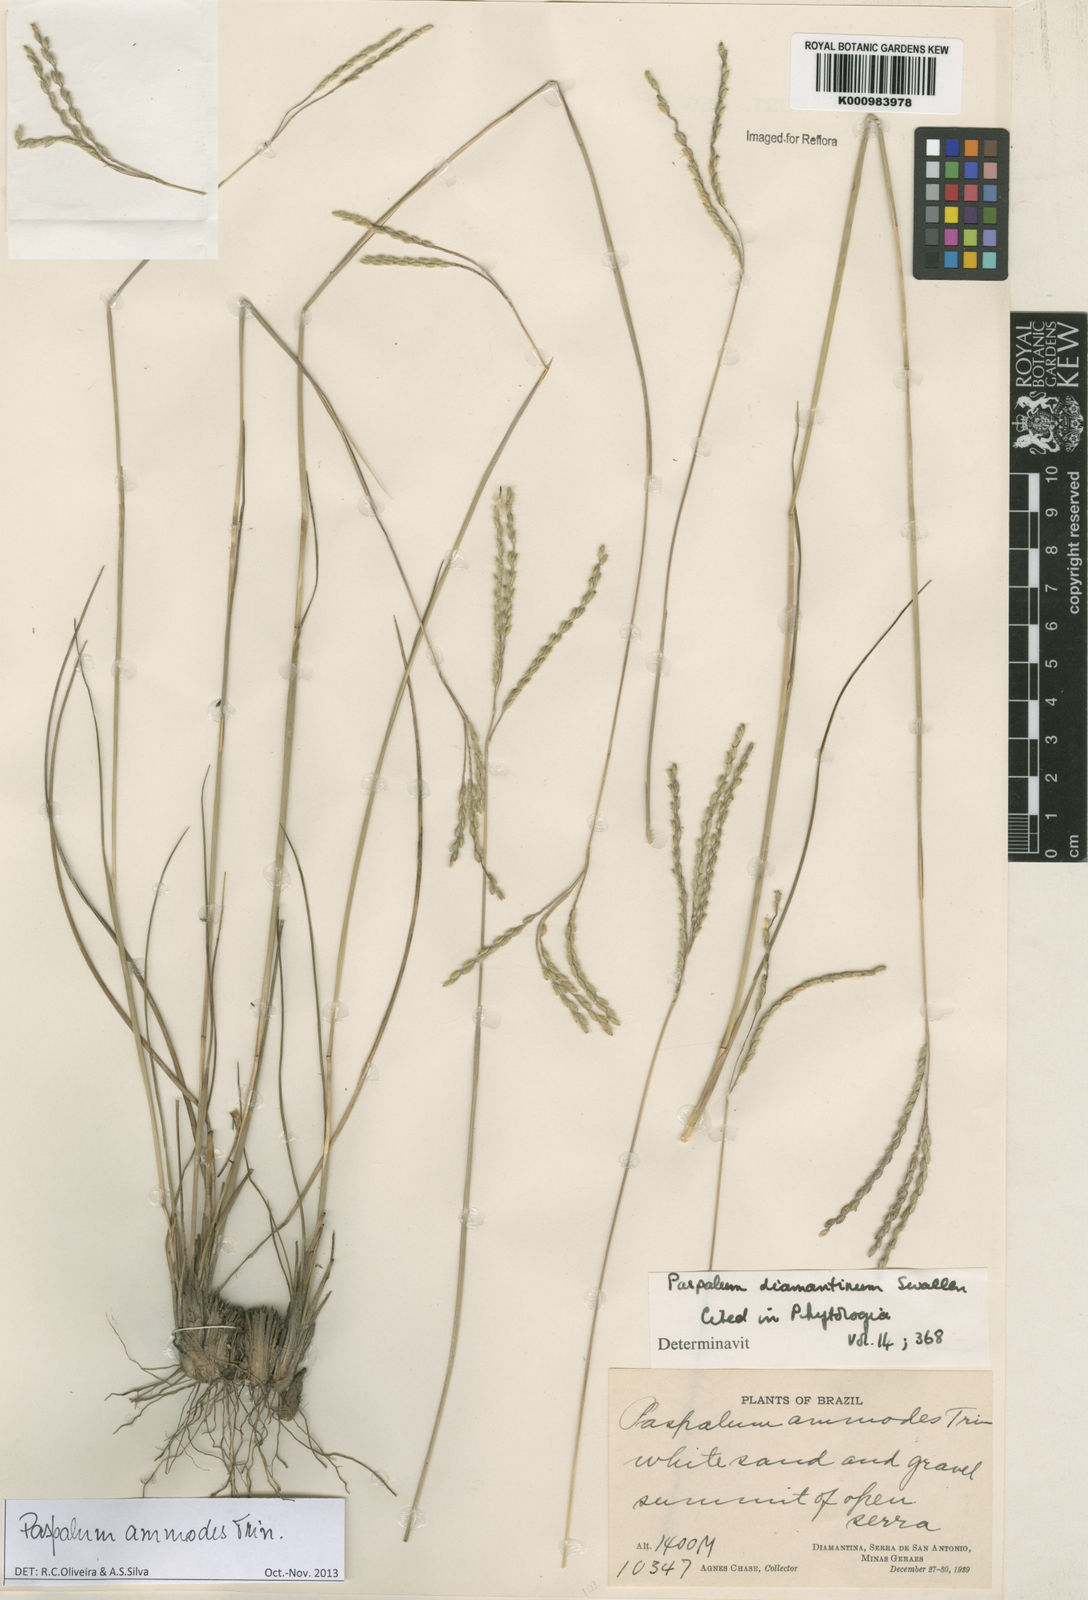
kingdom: Plantae
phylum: Tracheophyta
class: Liliopsida
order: Poales
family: Poaceae
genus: Paspalum
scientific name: Paspalum ammodes
